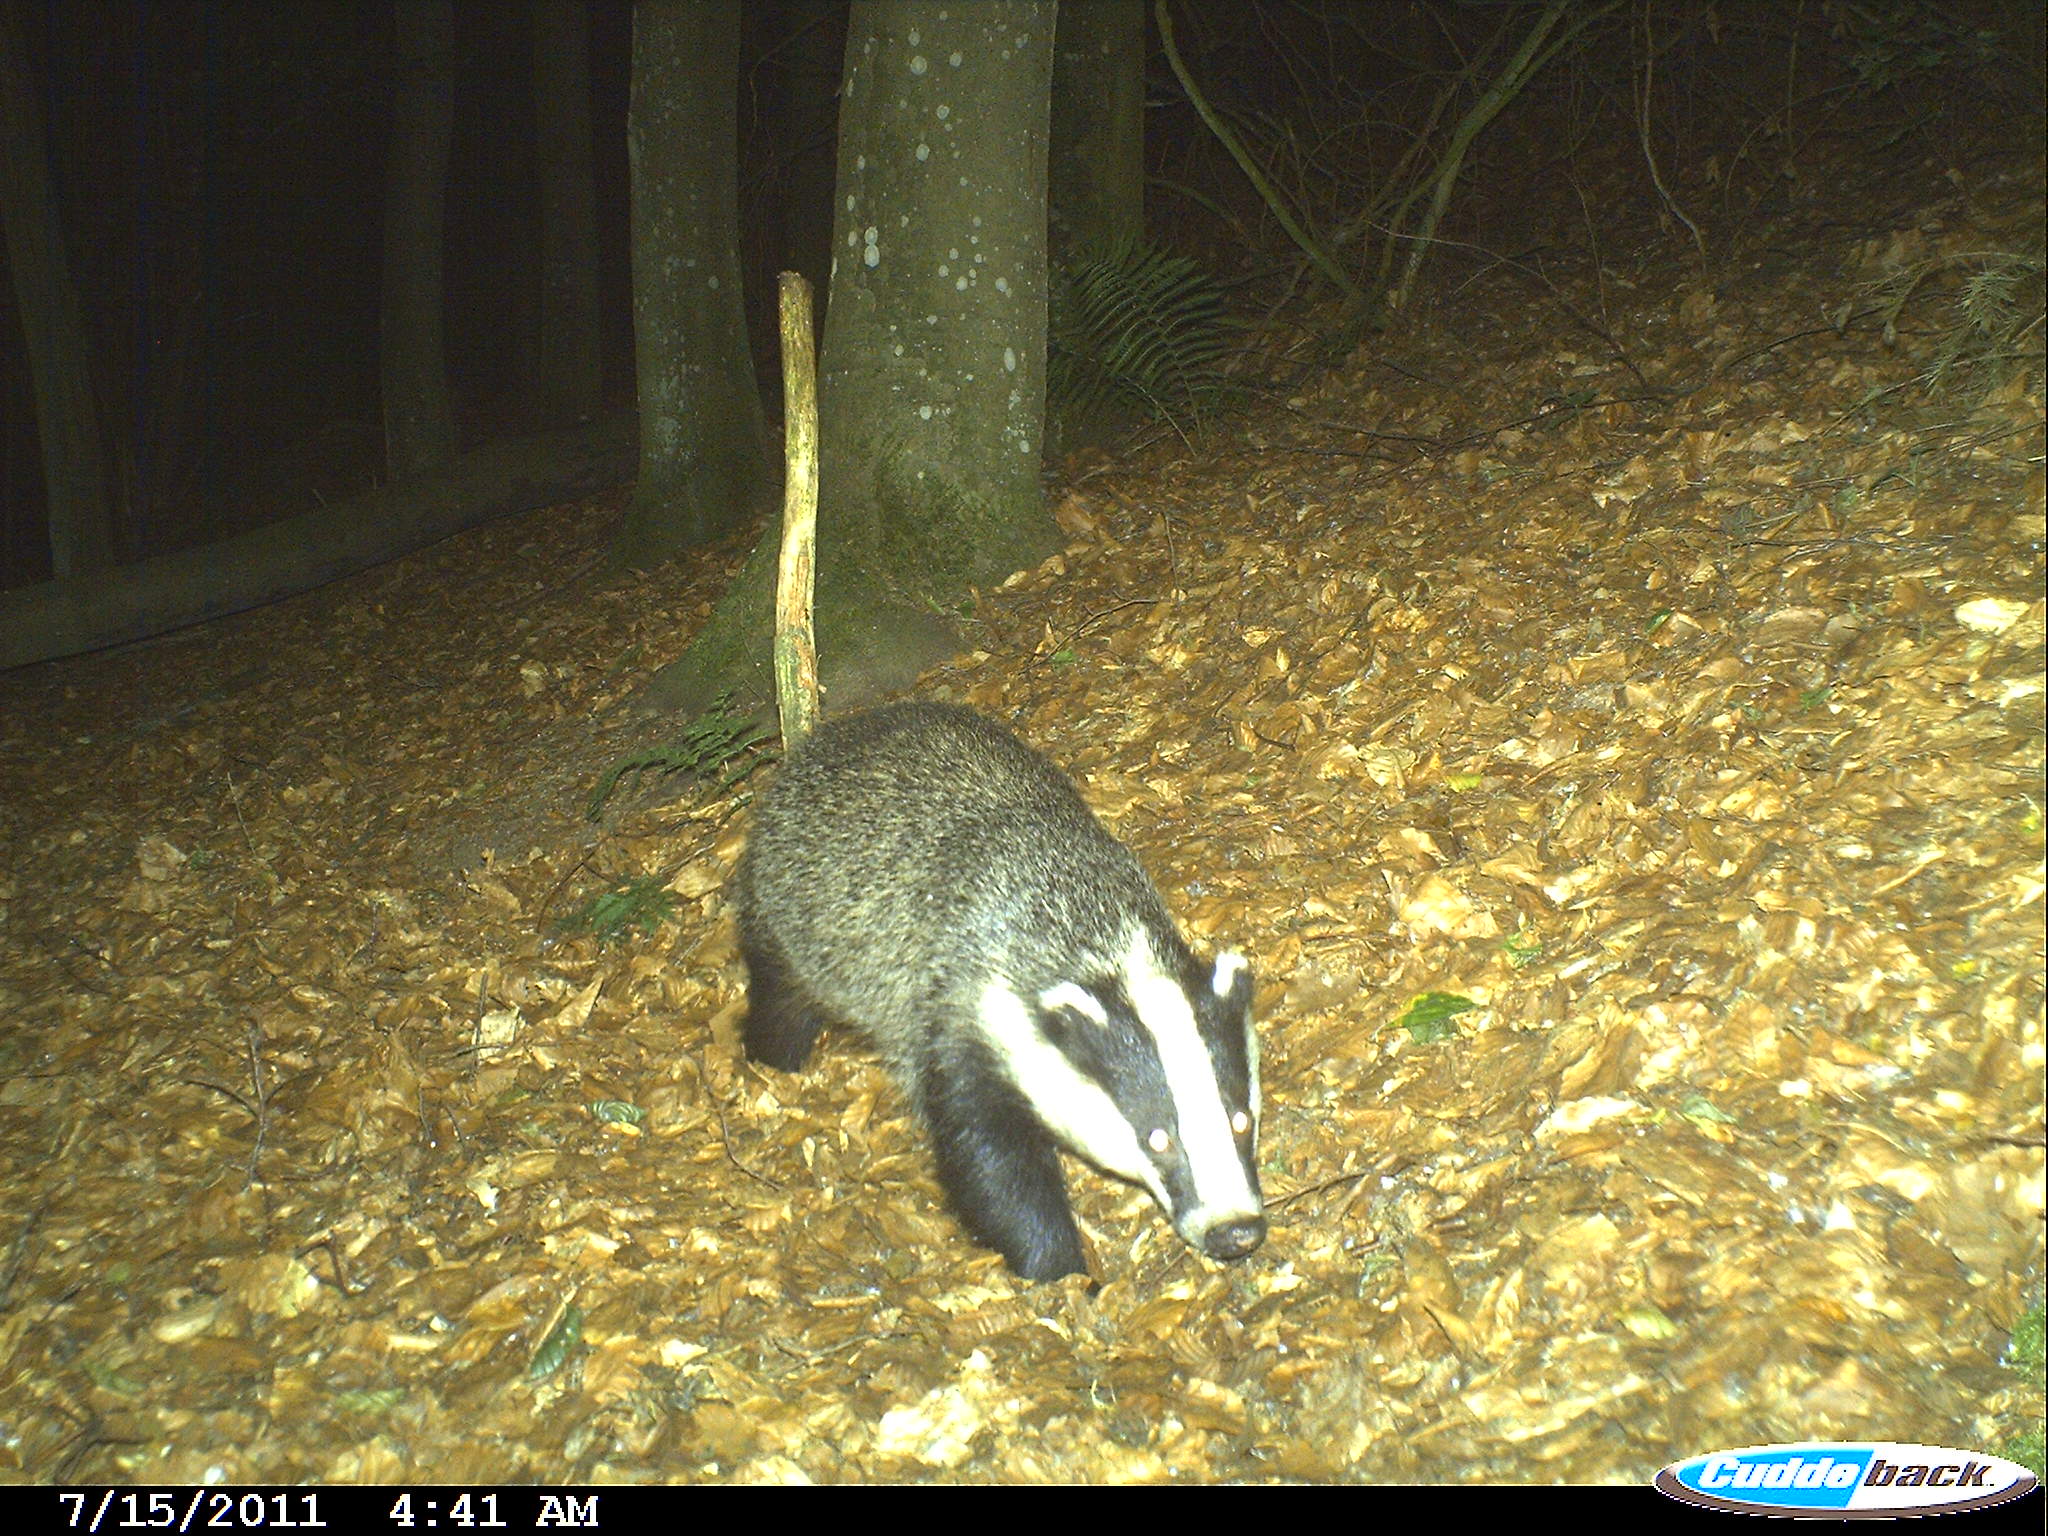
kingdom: Animalia
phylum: Chordata
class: Mammalia
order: Carnivora
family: Mustelidae
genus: Meles
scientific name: Meles meles
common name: Eurasian badger
